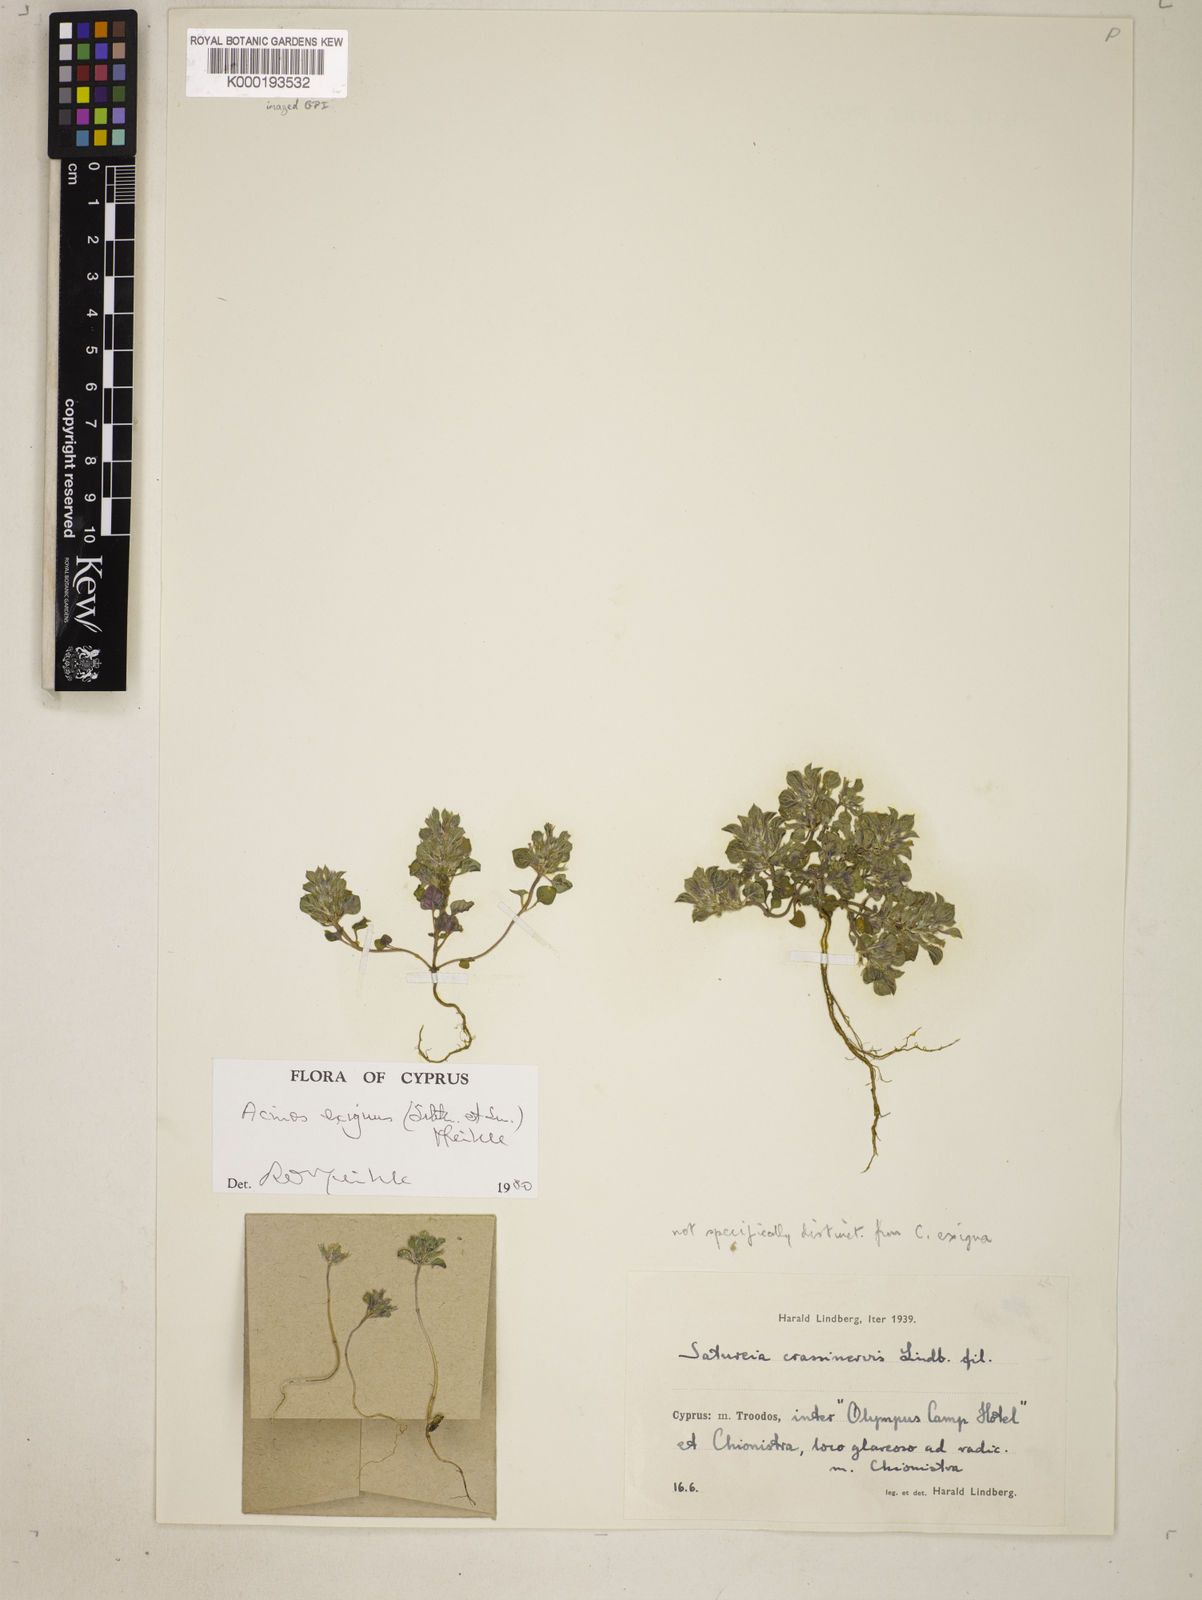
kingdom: Plantae
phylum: Tracheophyta
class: Magnoliopsida
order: Lamiales
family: Lamiaceae
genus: Ziziphora
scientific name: Ziziphora aragonensis
